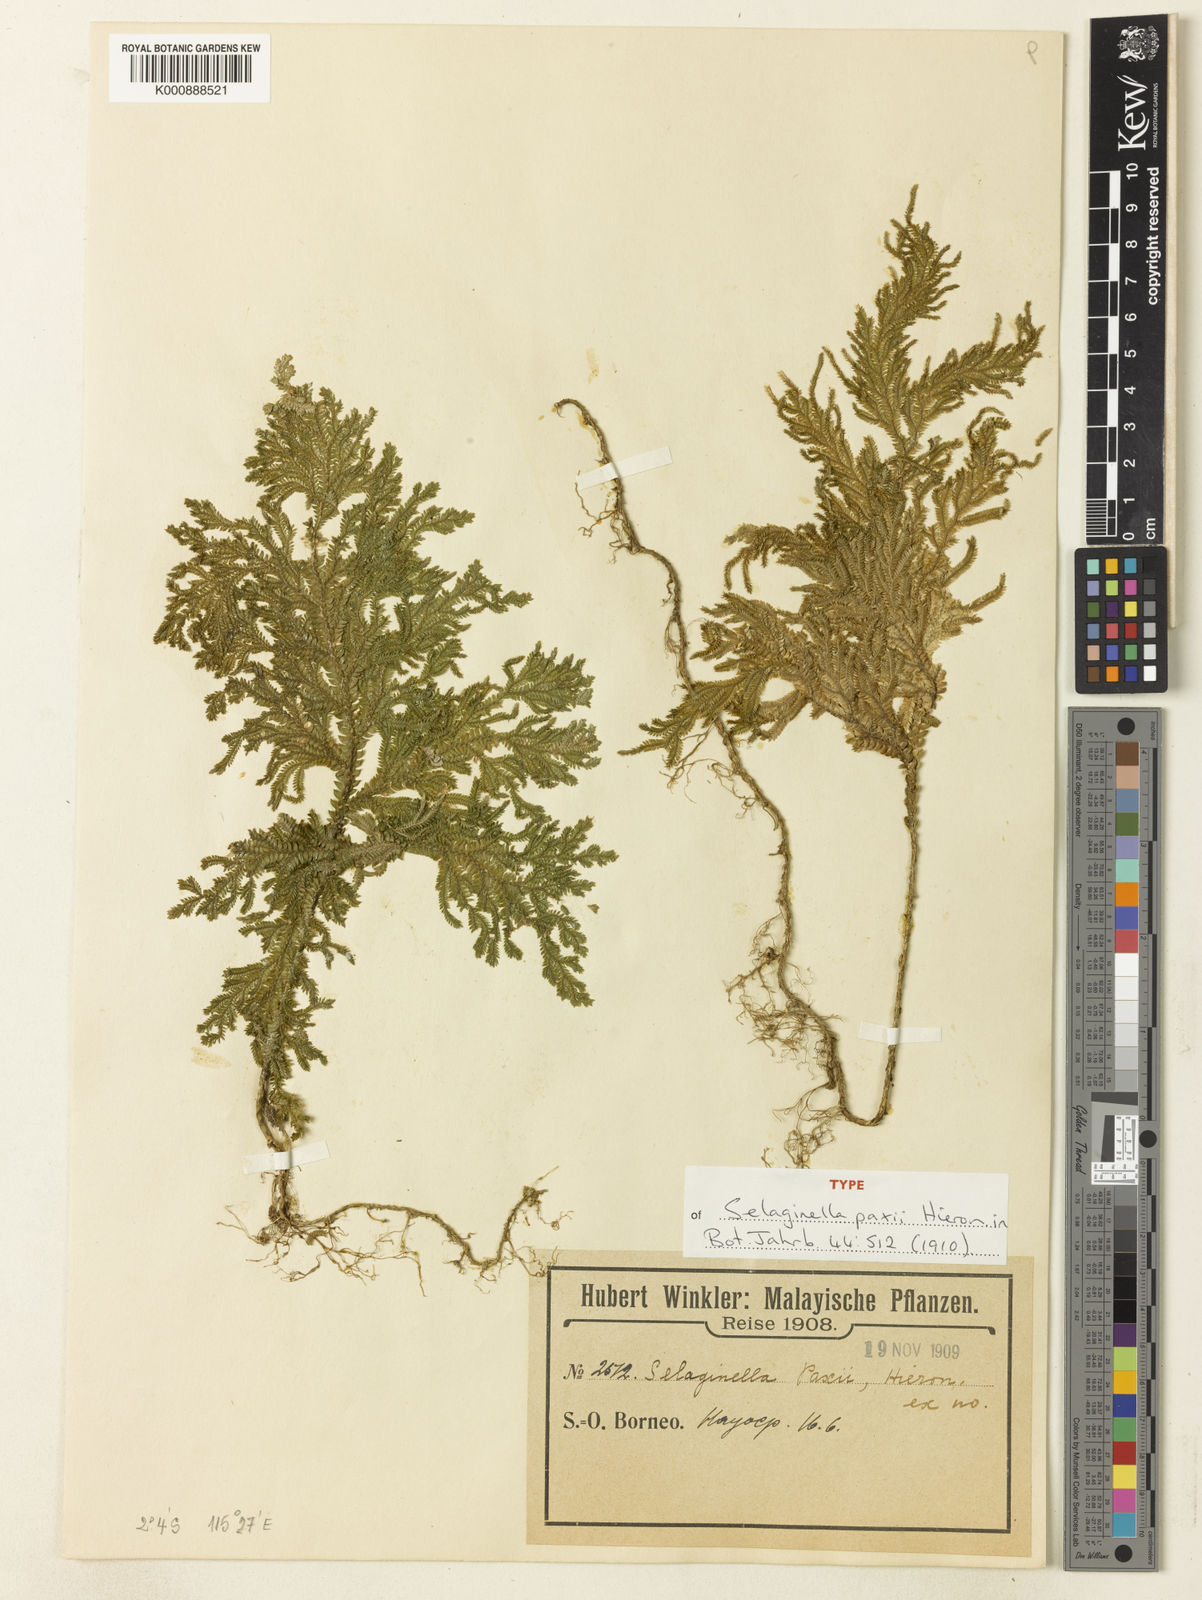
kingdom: Plantae
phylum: Tracheophyta
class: Lycopodiopsida
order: Selaginellales
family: Selaginellaceae
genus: Selaginella
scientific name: Selaginella paxii
